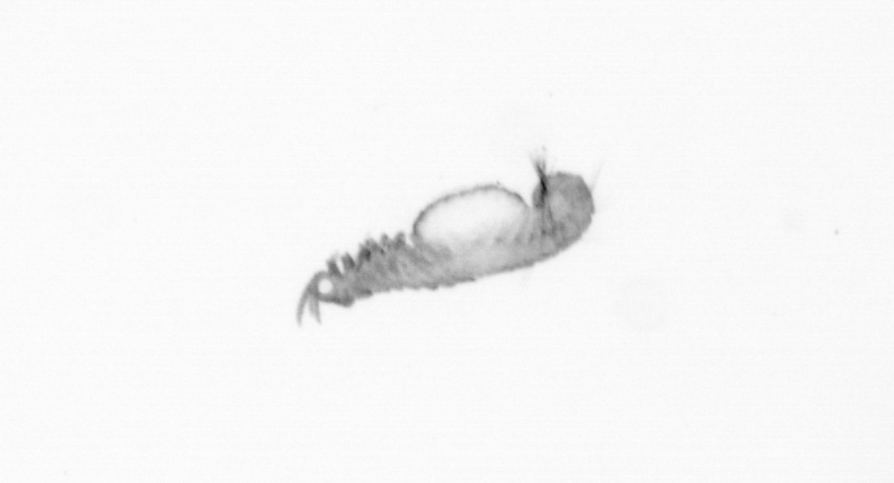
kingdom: Animalia
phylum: Annelida
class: Polychaeta
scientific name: Polychaeta
